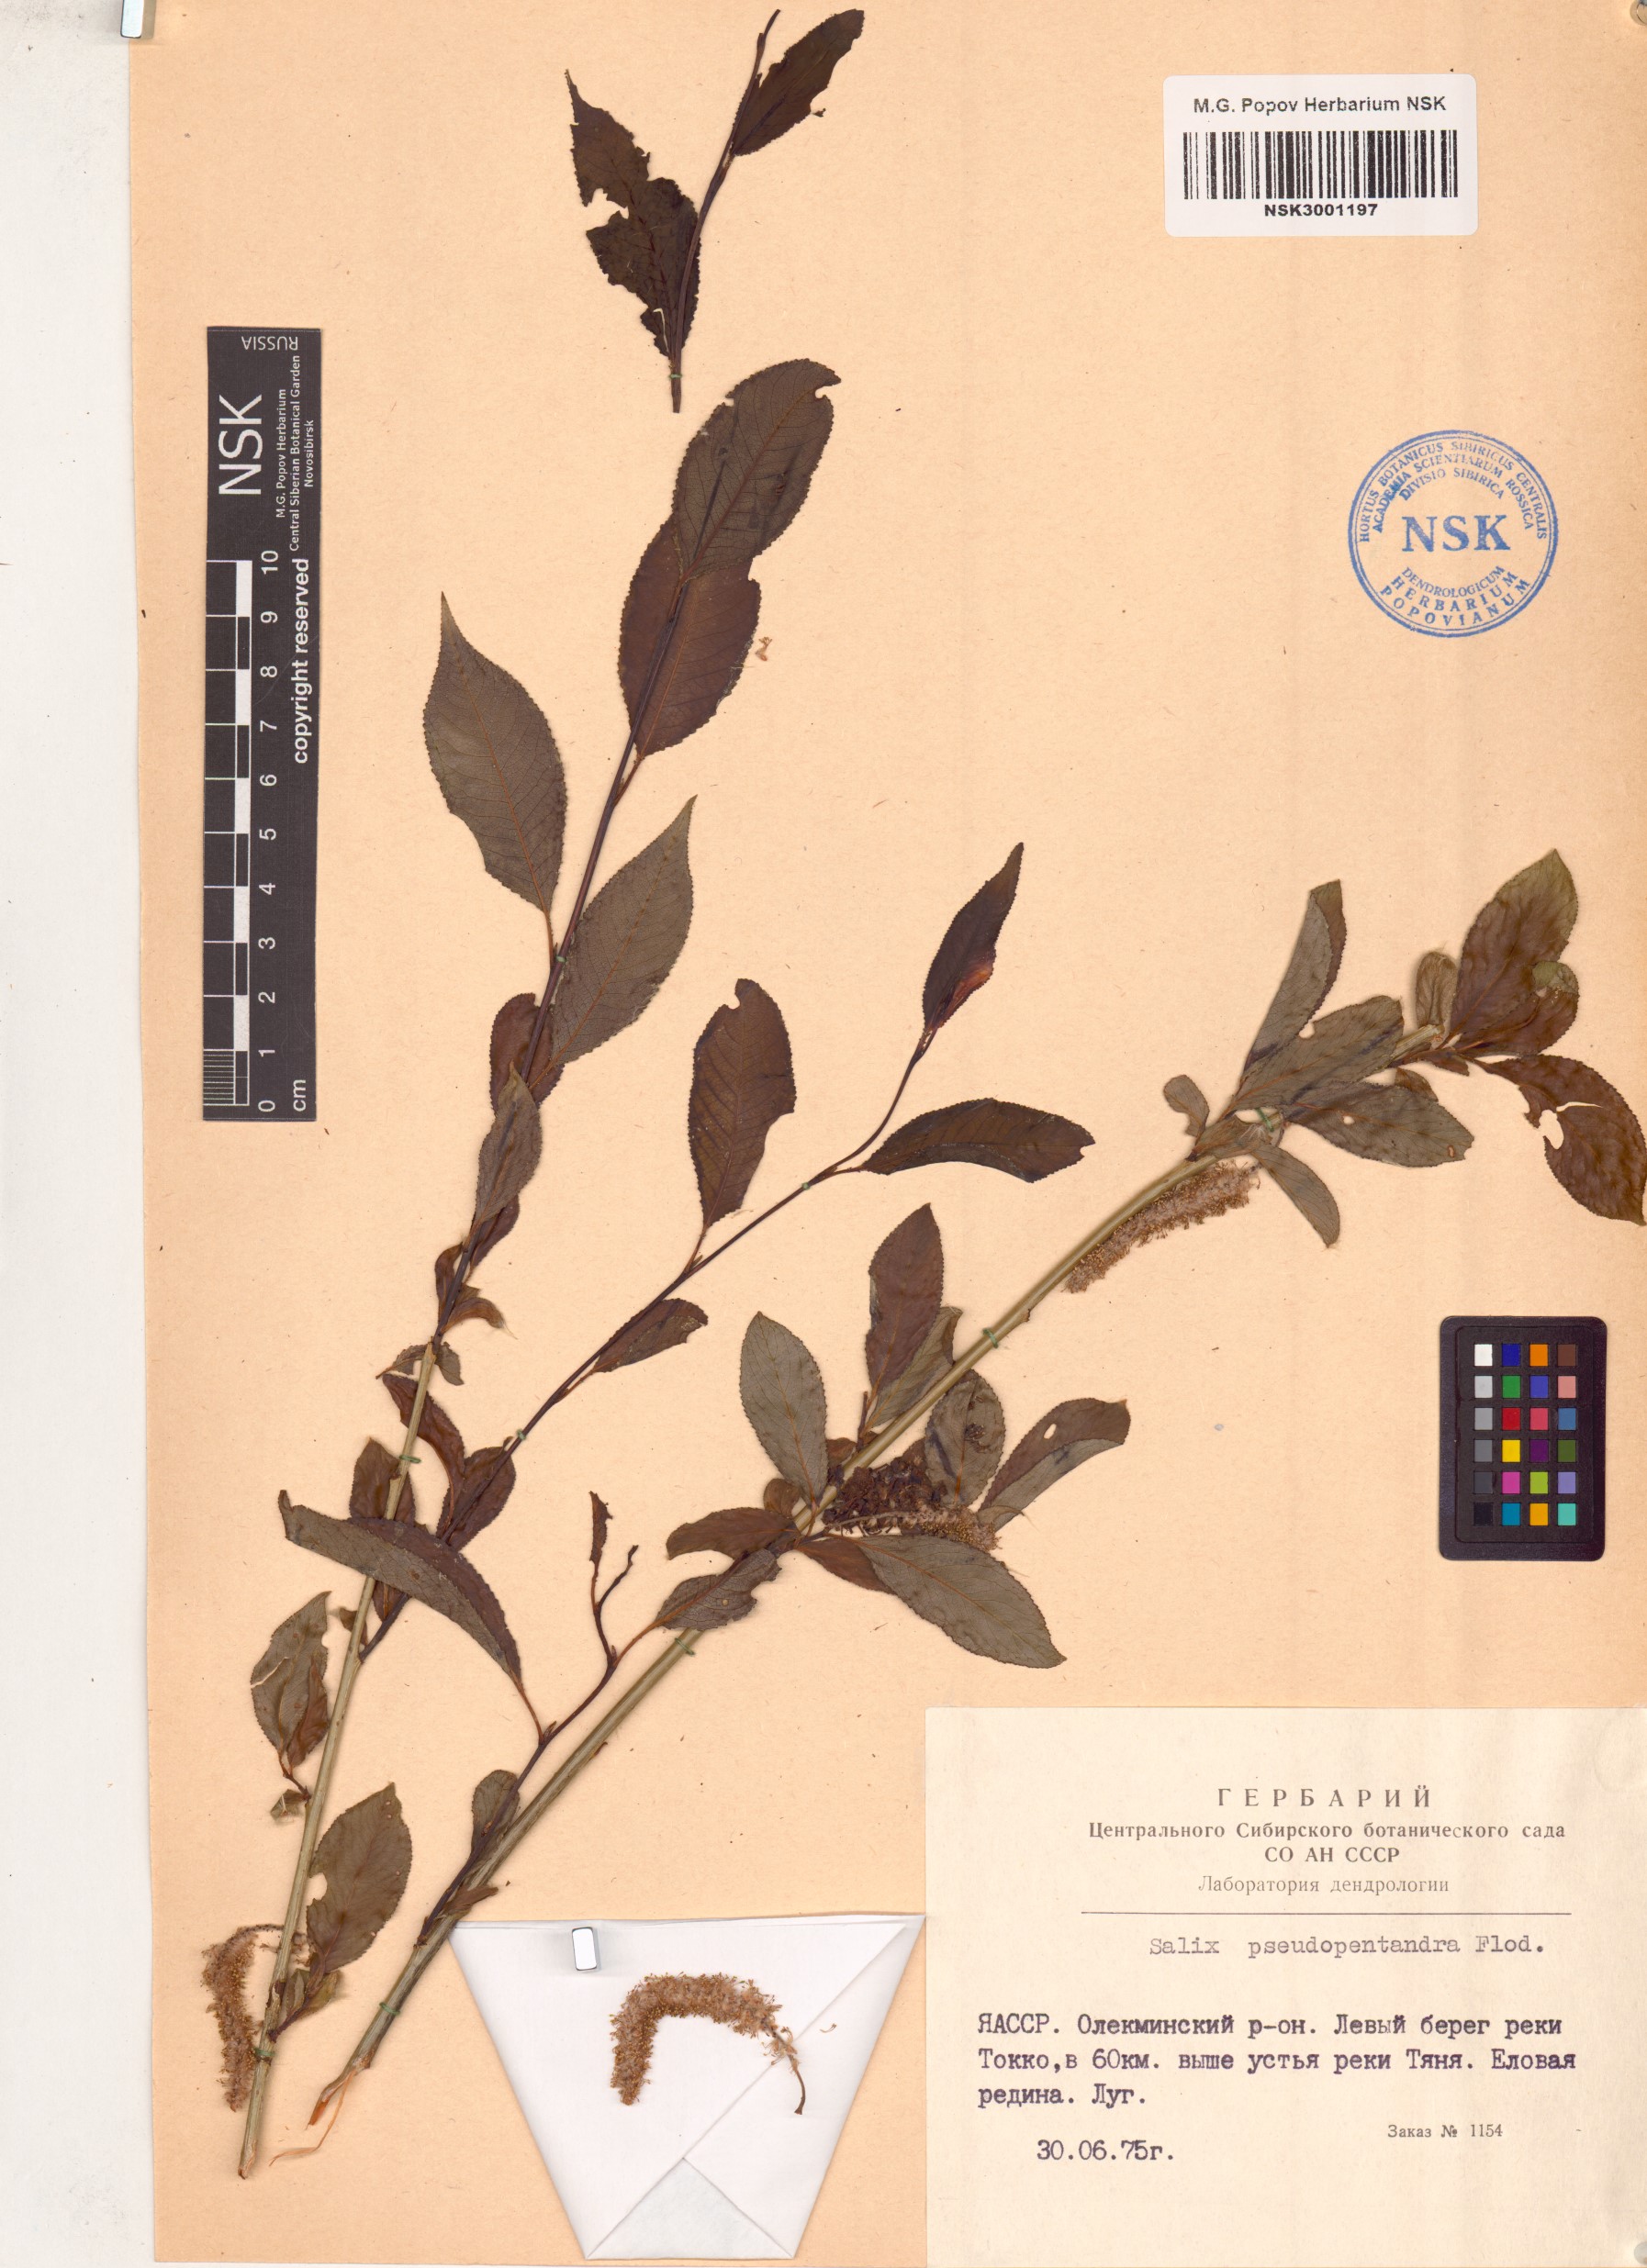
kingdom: Plantae
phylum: Tracheophyta
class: Magnoliopsida
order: Malpighiales
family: Salicaceae
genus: Salix
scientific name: Salix pseudopentandra
